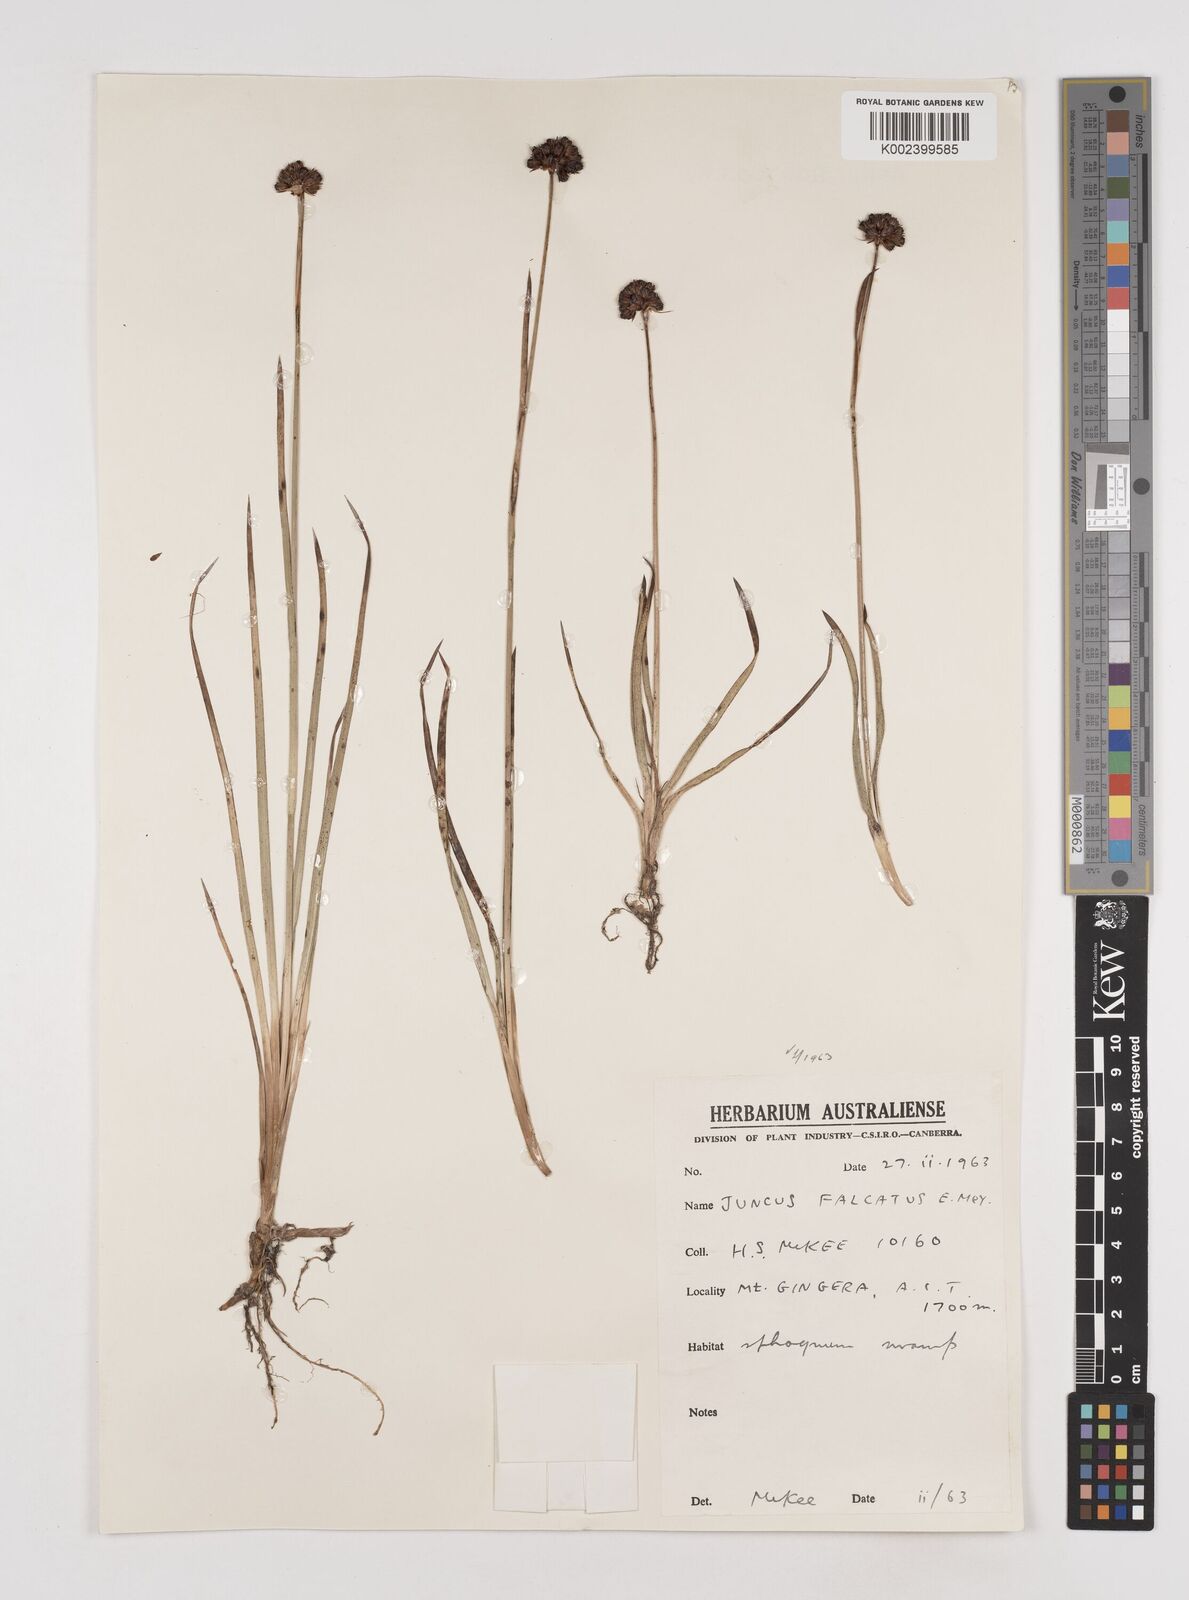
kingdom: Plantae
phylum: Tracheophyta
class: Liliopsida
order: Poales
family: Juncaceae
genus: Juncus
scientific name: Juncus falcatus
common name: Sickle-leaf rush
